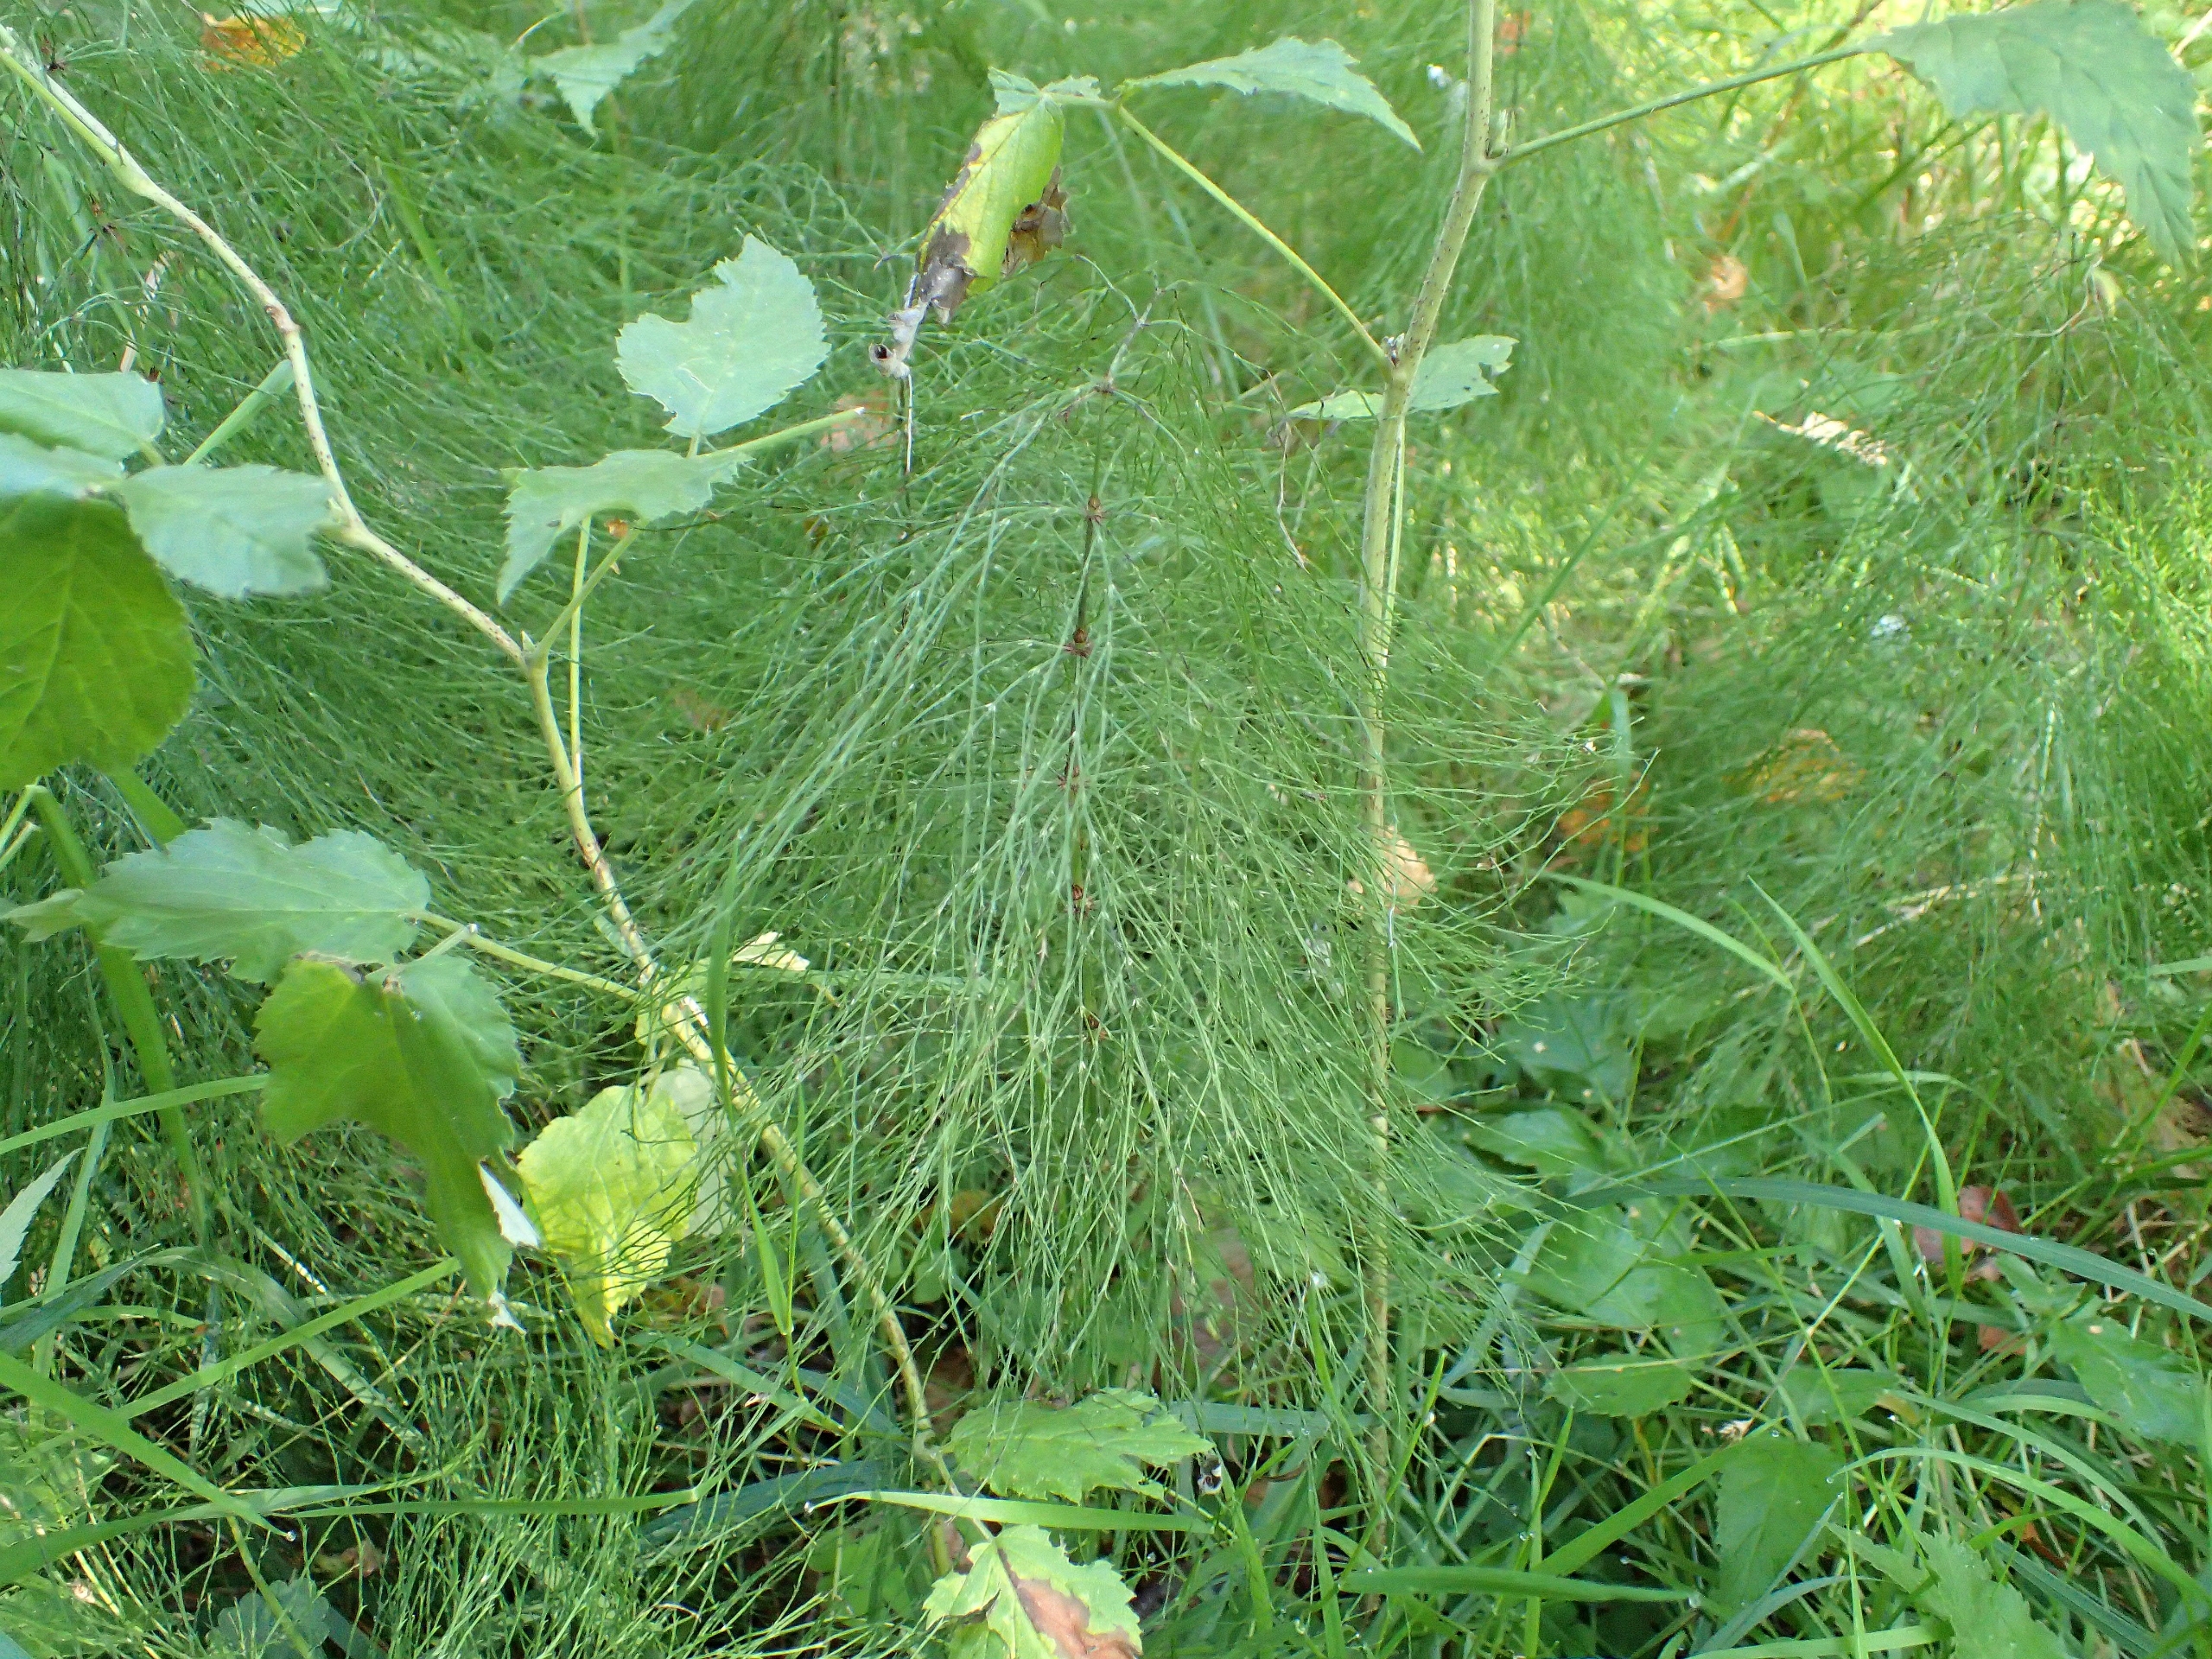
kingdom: Plantae
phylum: Tracheophyta
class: Polypodiopsida
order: Equisetales
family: Equisetaceae
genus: Equisetum
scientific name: Equisetum sylvaticum
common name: Skov-padderok
